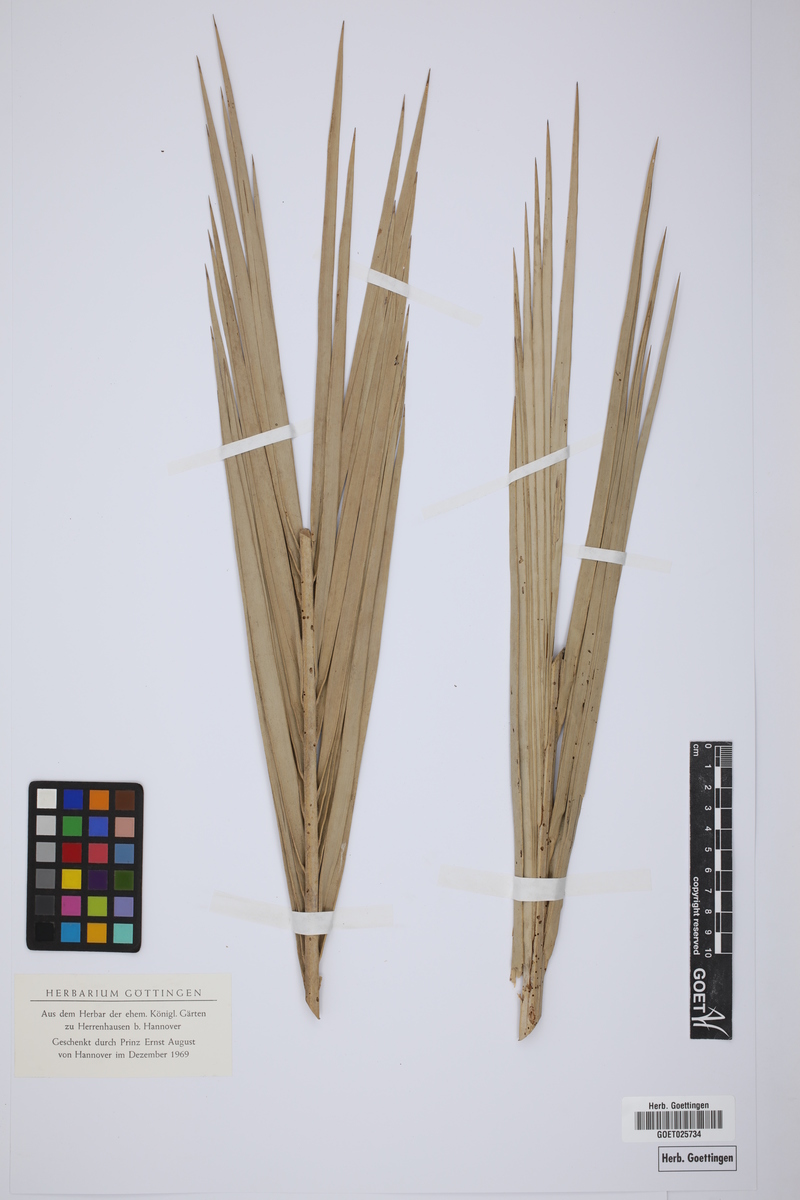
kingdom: Plantae
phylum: Tracheophyta
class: Liliopsida
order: Arecales
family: Arecaceae
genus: Phoenix
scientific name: Phoenix paludosa
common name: Mangrove date palm
